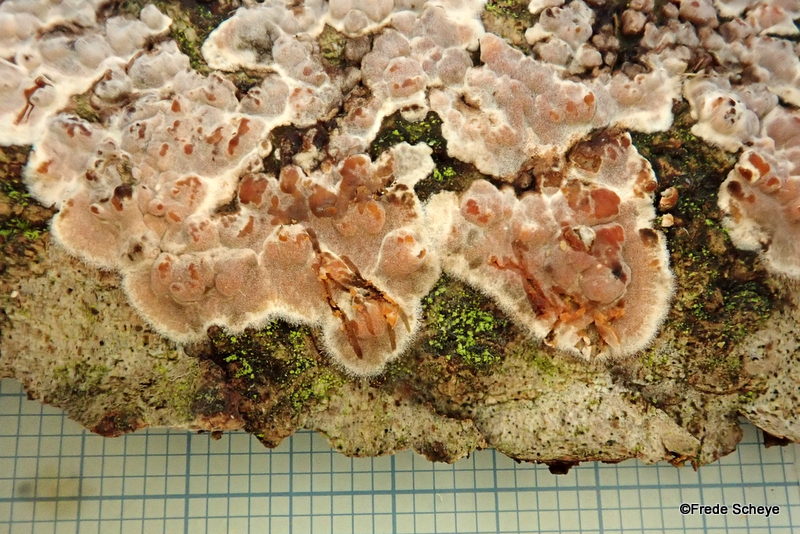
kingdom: Fungi
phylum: Basidiomycota
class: Agaricomycetes
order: Russulales
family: Peniophoraceae
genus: Peniophora
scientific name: Peniophora polygonia
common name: polygon-voksskind
